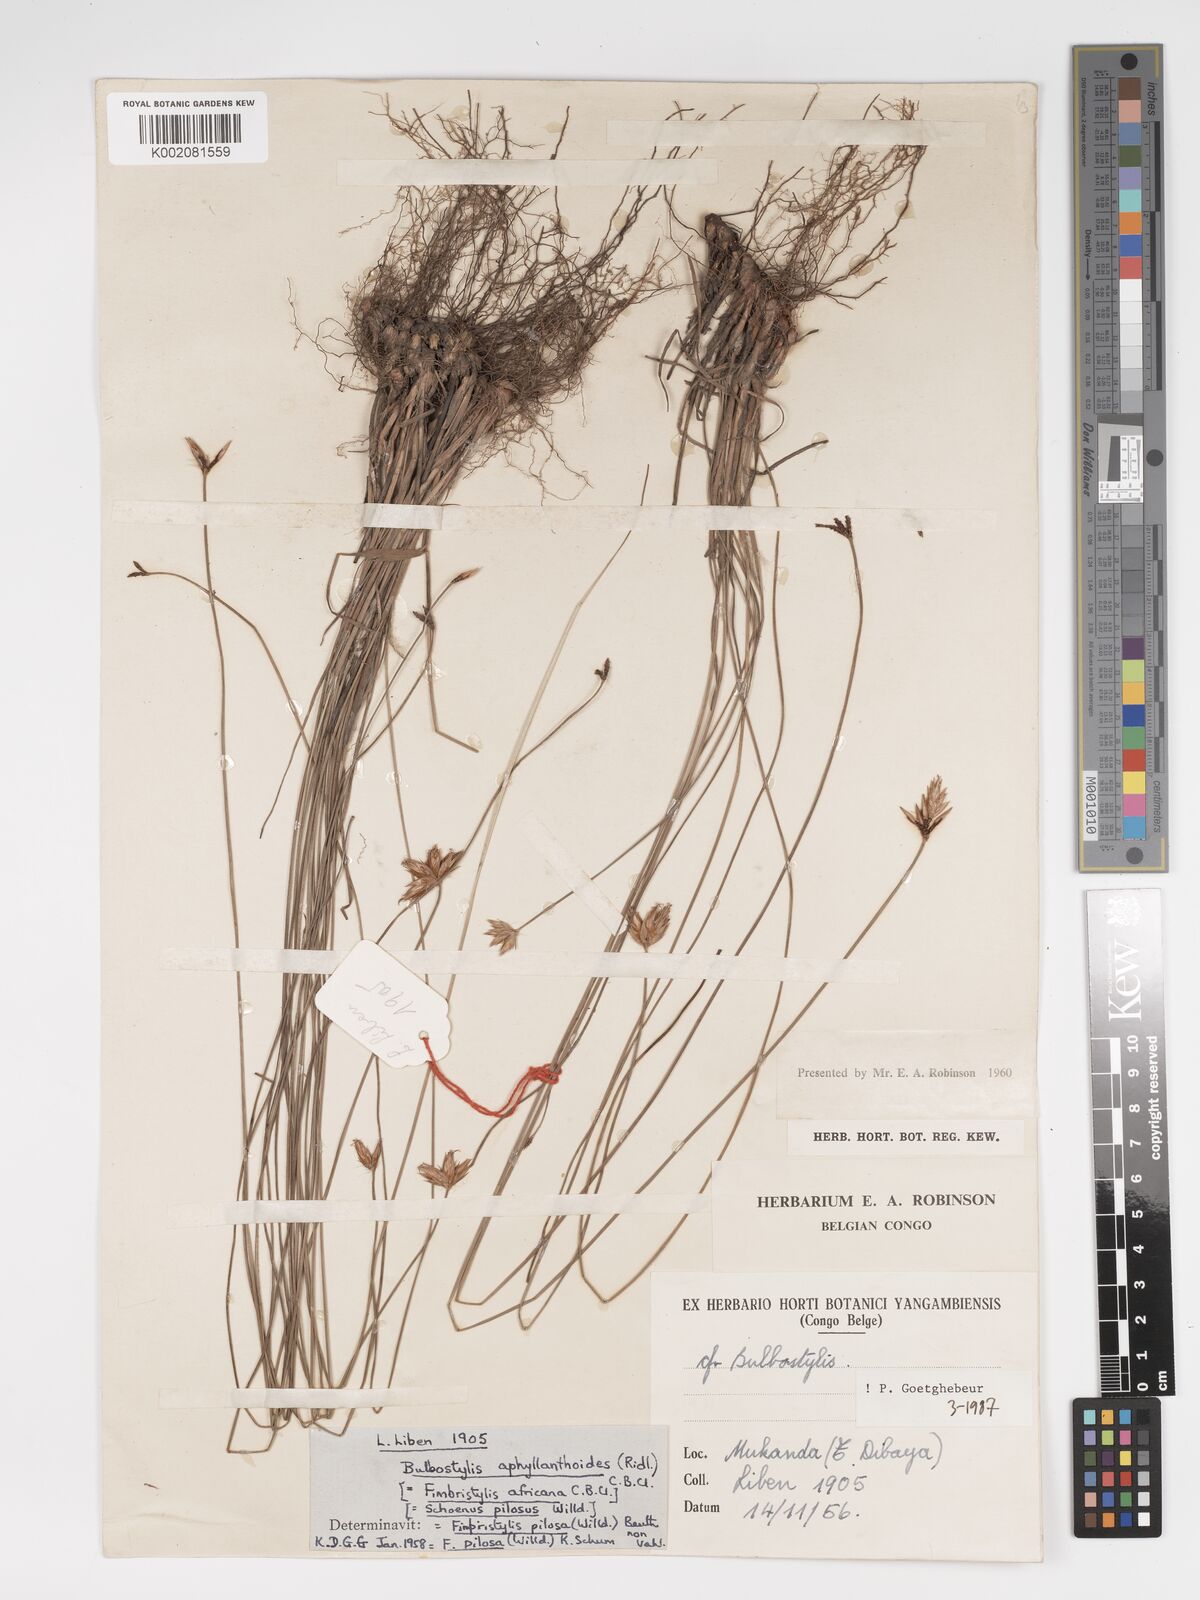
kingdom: Plantae
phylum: Tracheophyta
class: Liliopsida
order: Poales
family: Cyperaceae
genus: Bulbostylis
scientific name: Bulbostylis pilosa
